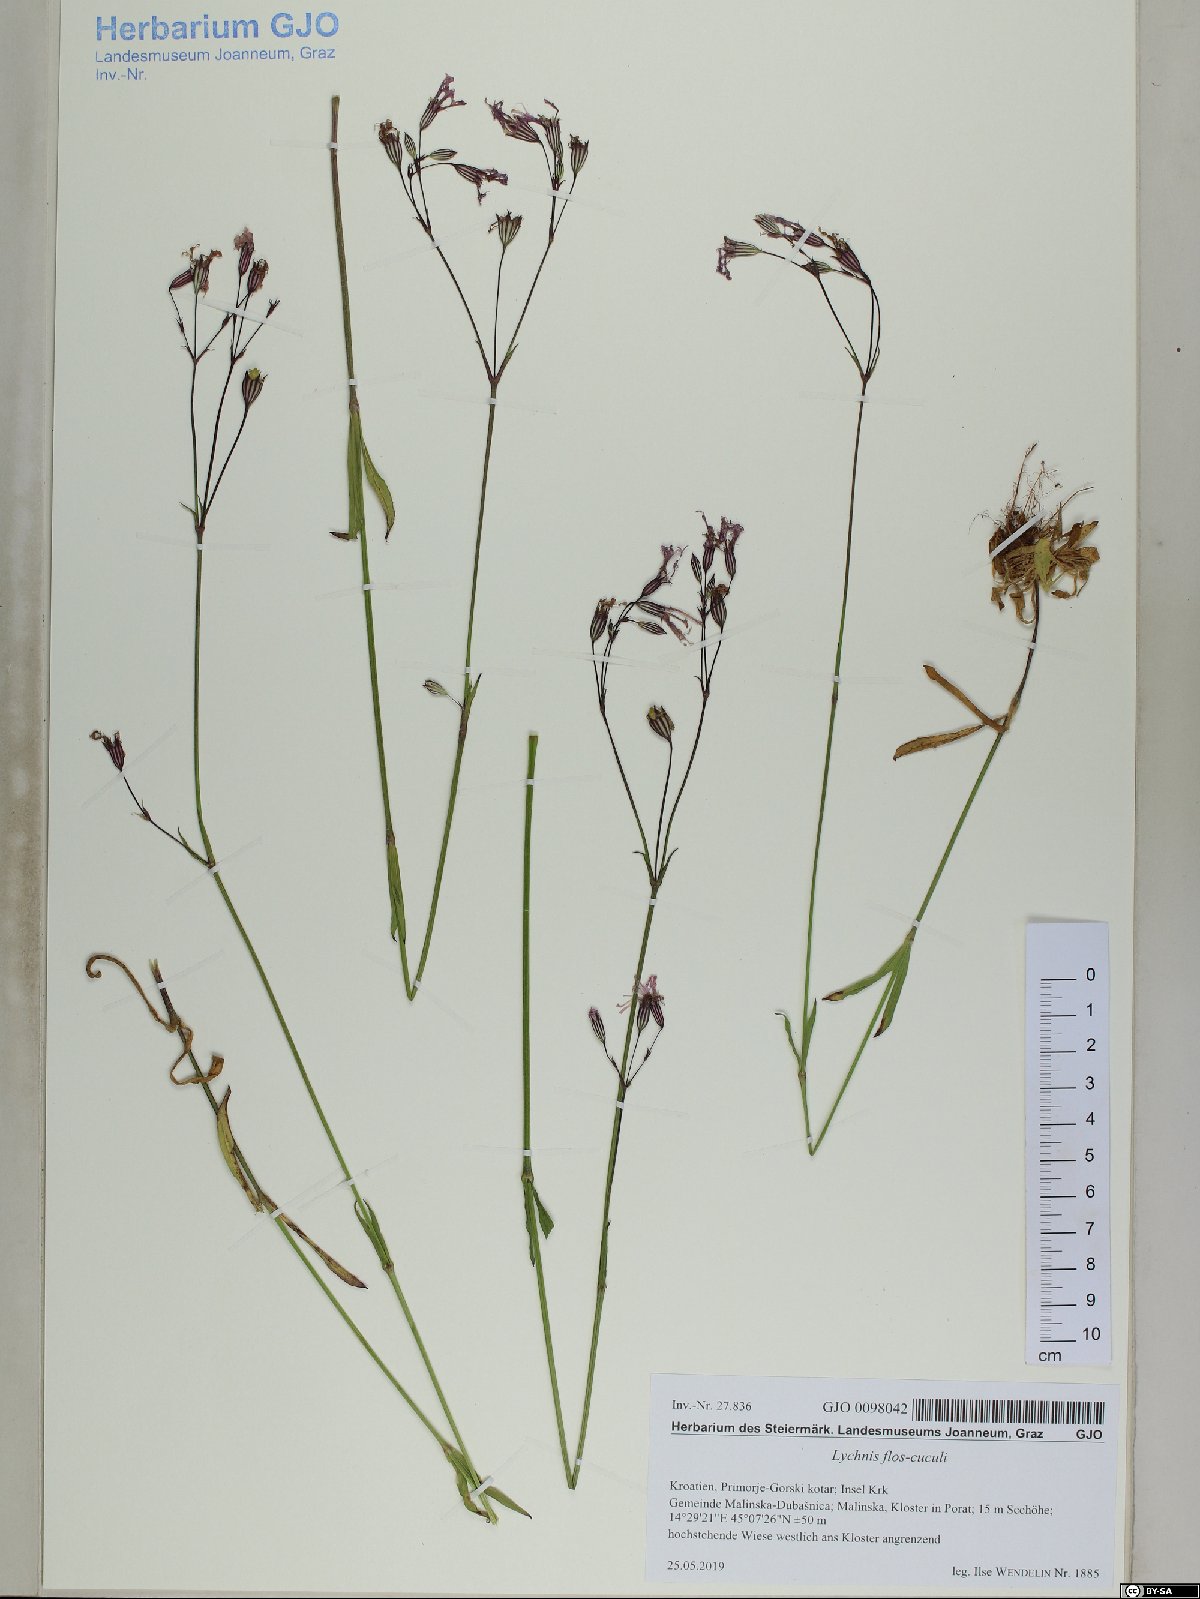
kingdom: Plantae
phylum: Tracheophyta
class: Magnoliopsida
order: Caryophyllales
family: Caryophyllaceae
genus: Silene
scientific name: Silene flos-cuculi
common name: Ragged-robin
